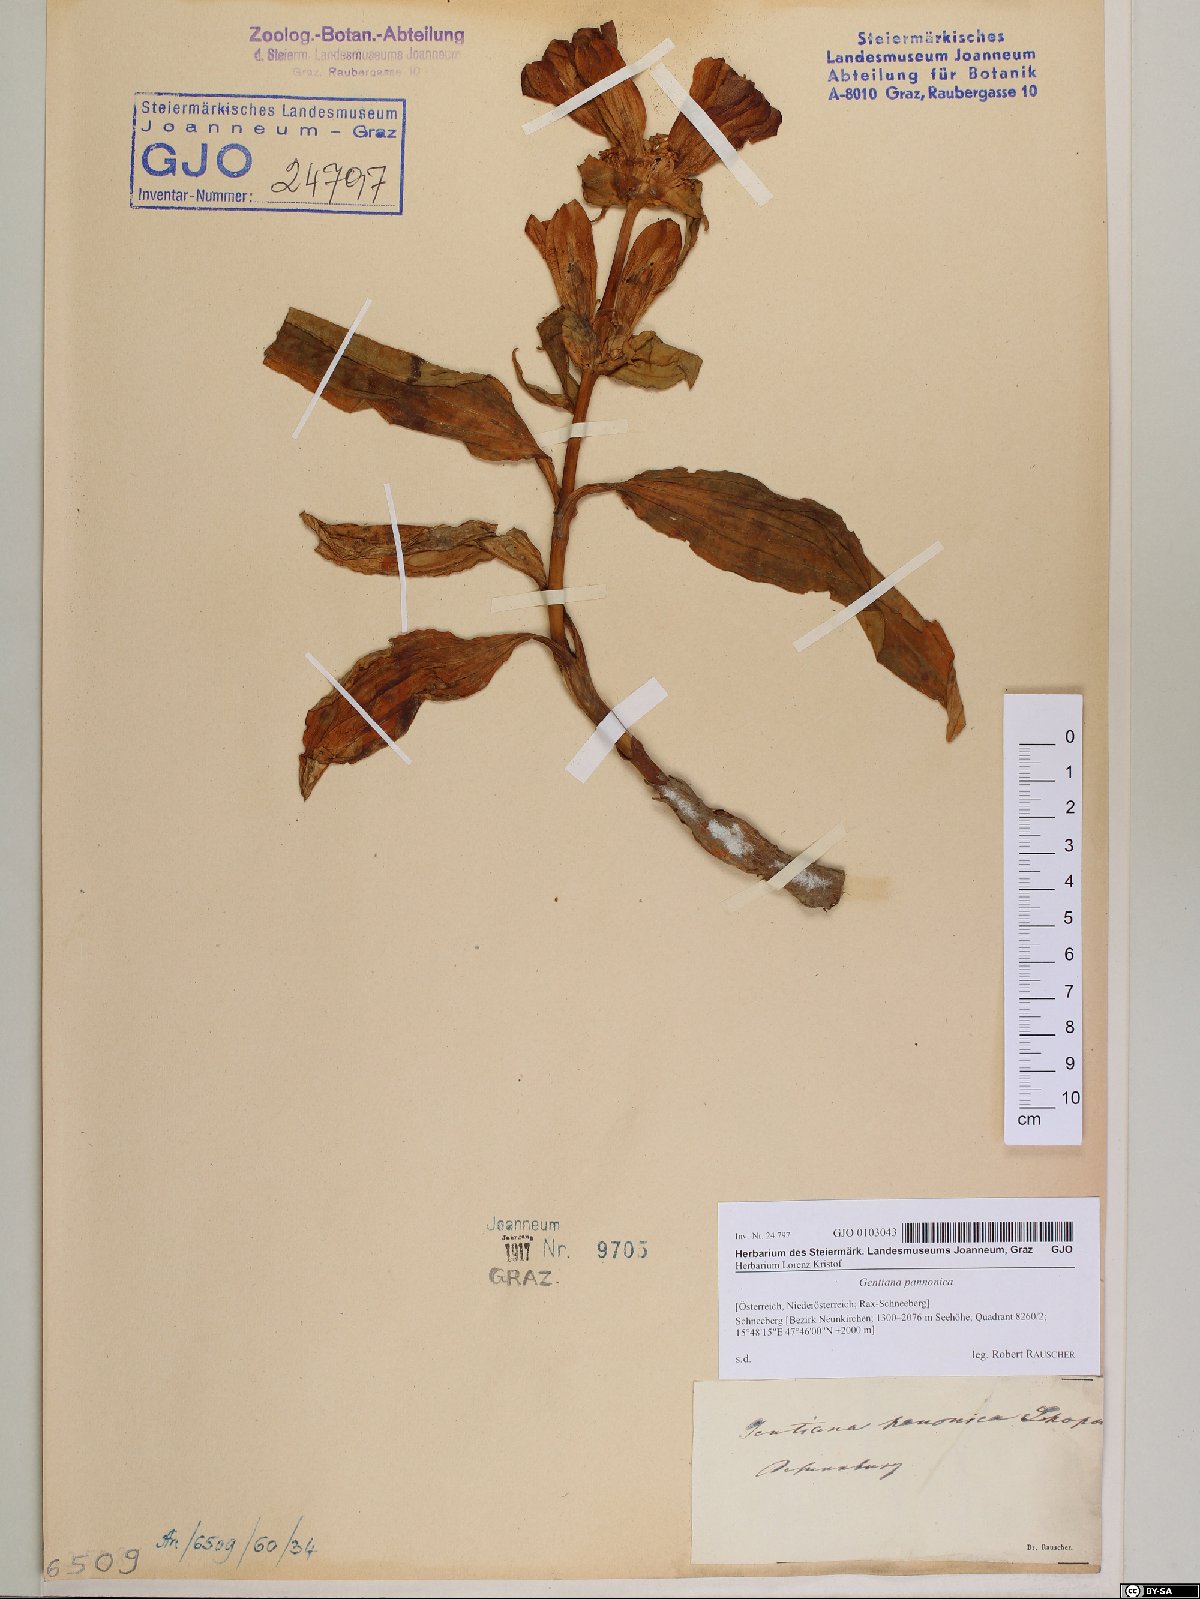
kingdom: Plantae
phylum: Tracheophyta
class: Magnoliopsida
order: Gentianales
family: Gentianaceae
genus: Gentiana
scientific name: Gentiana pannonica
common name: Hungarian gentian
